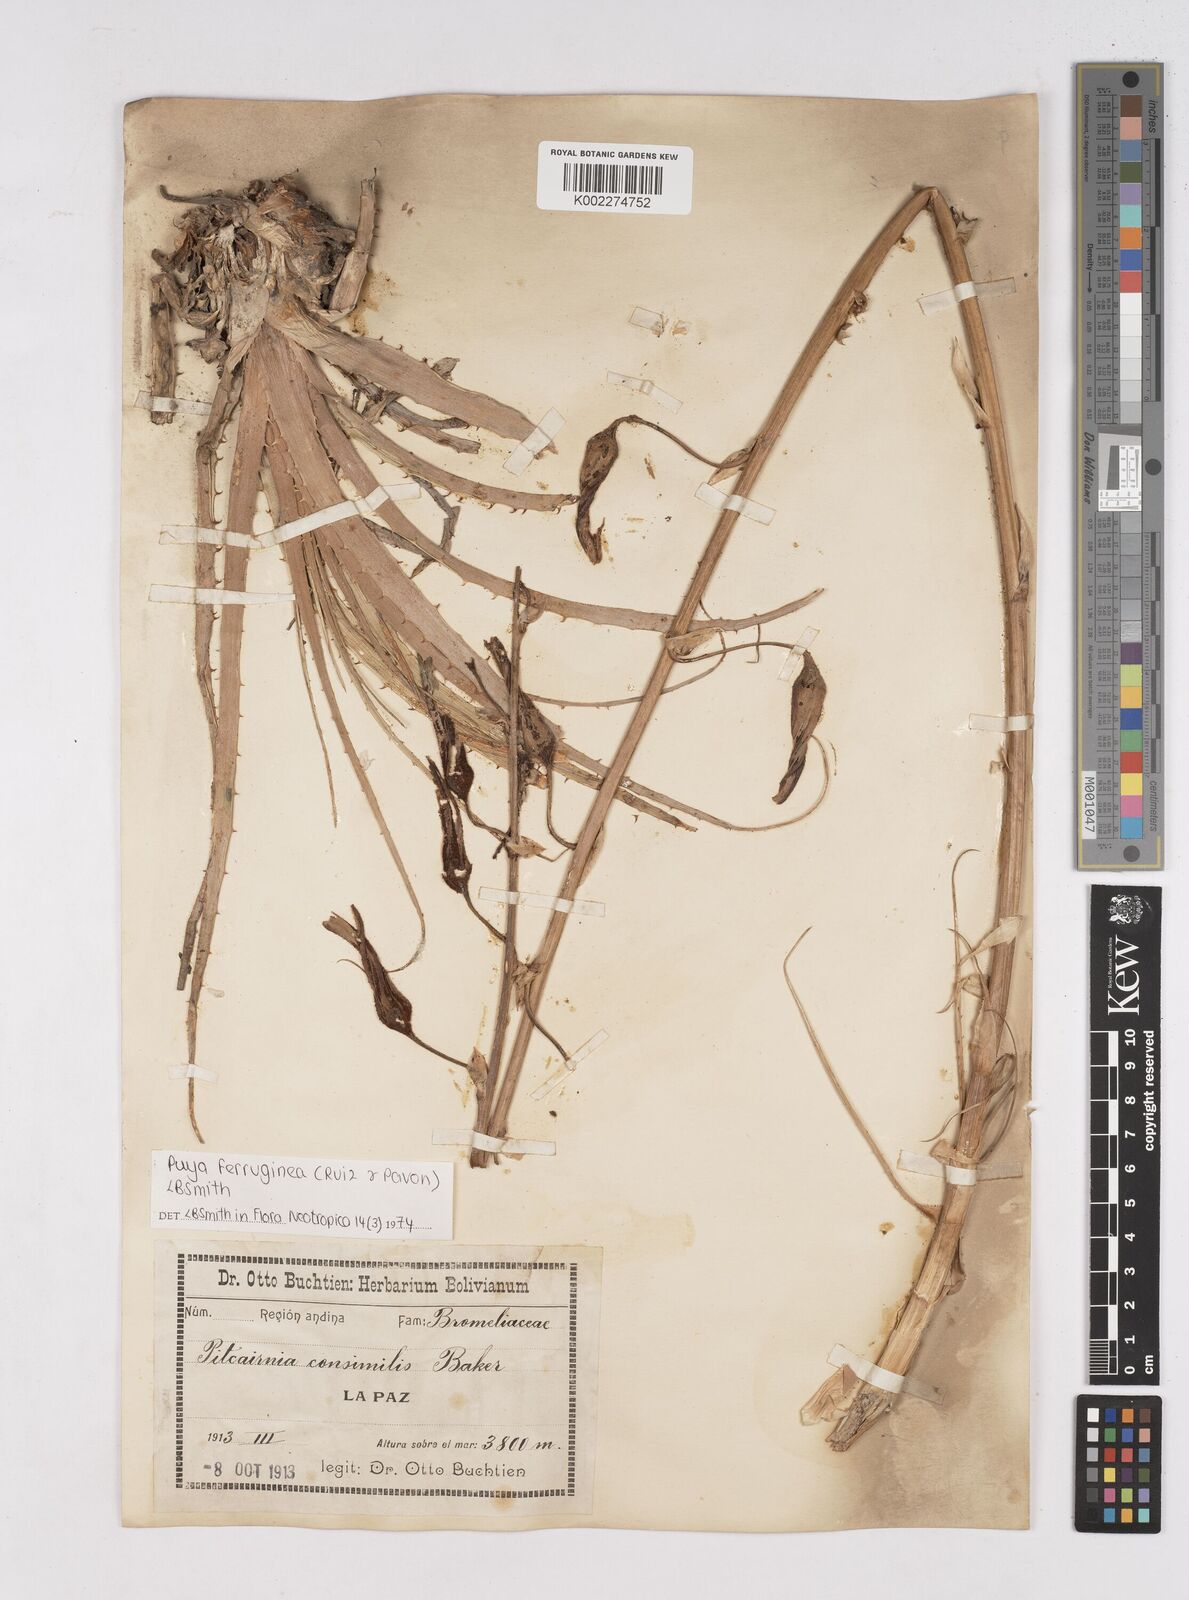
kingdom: Plantae
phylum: Tracheophyta
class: Liliopsida
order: Poales
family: Bromeliaceae
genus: Puya
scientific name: Puya ferruginea
